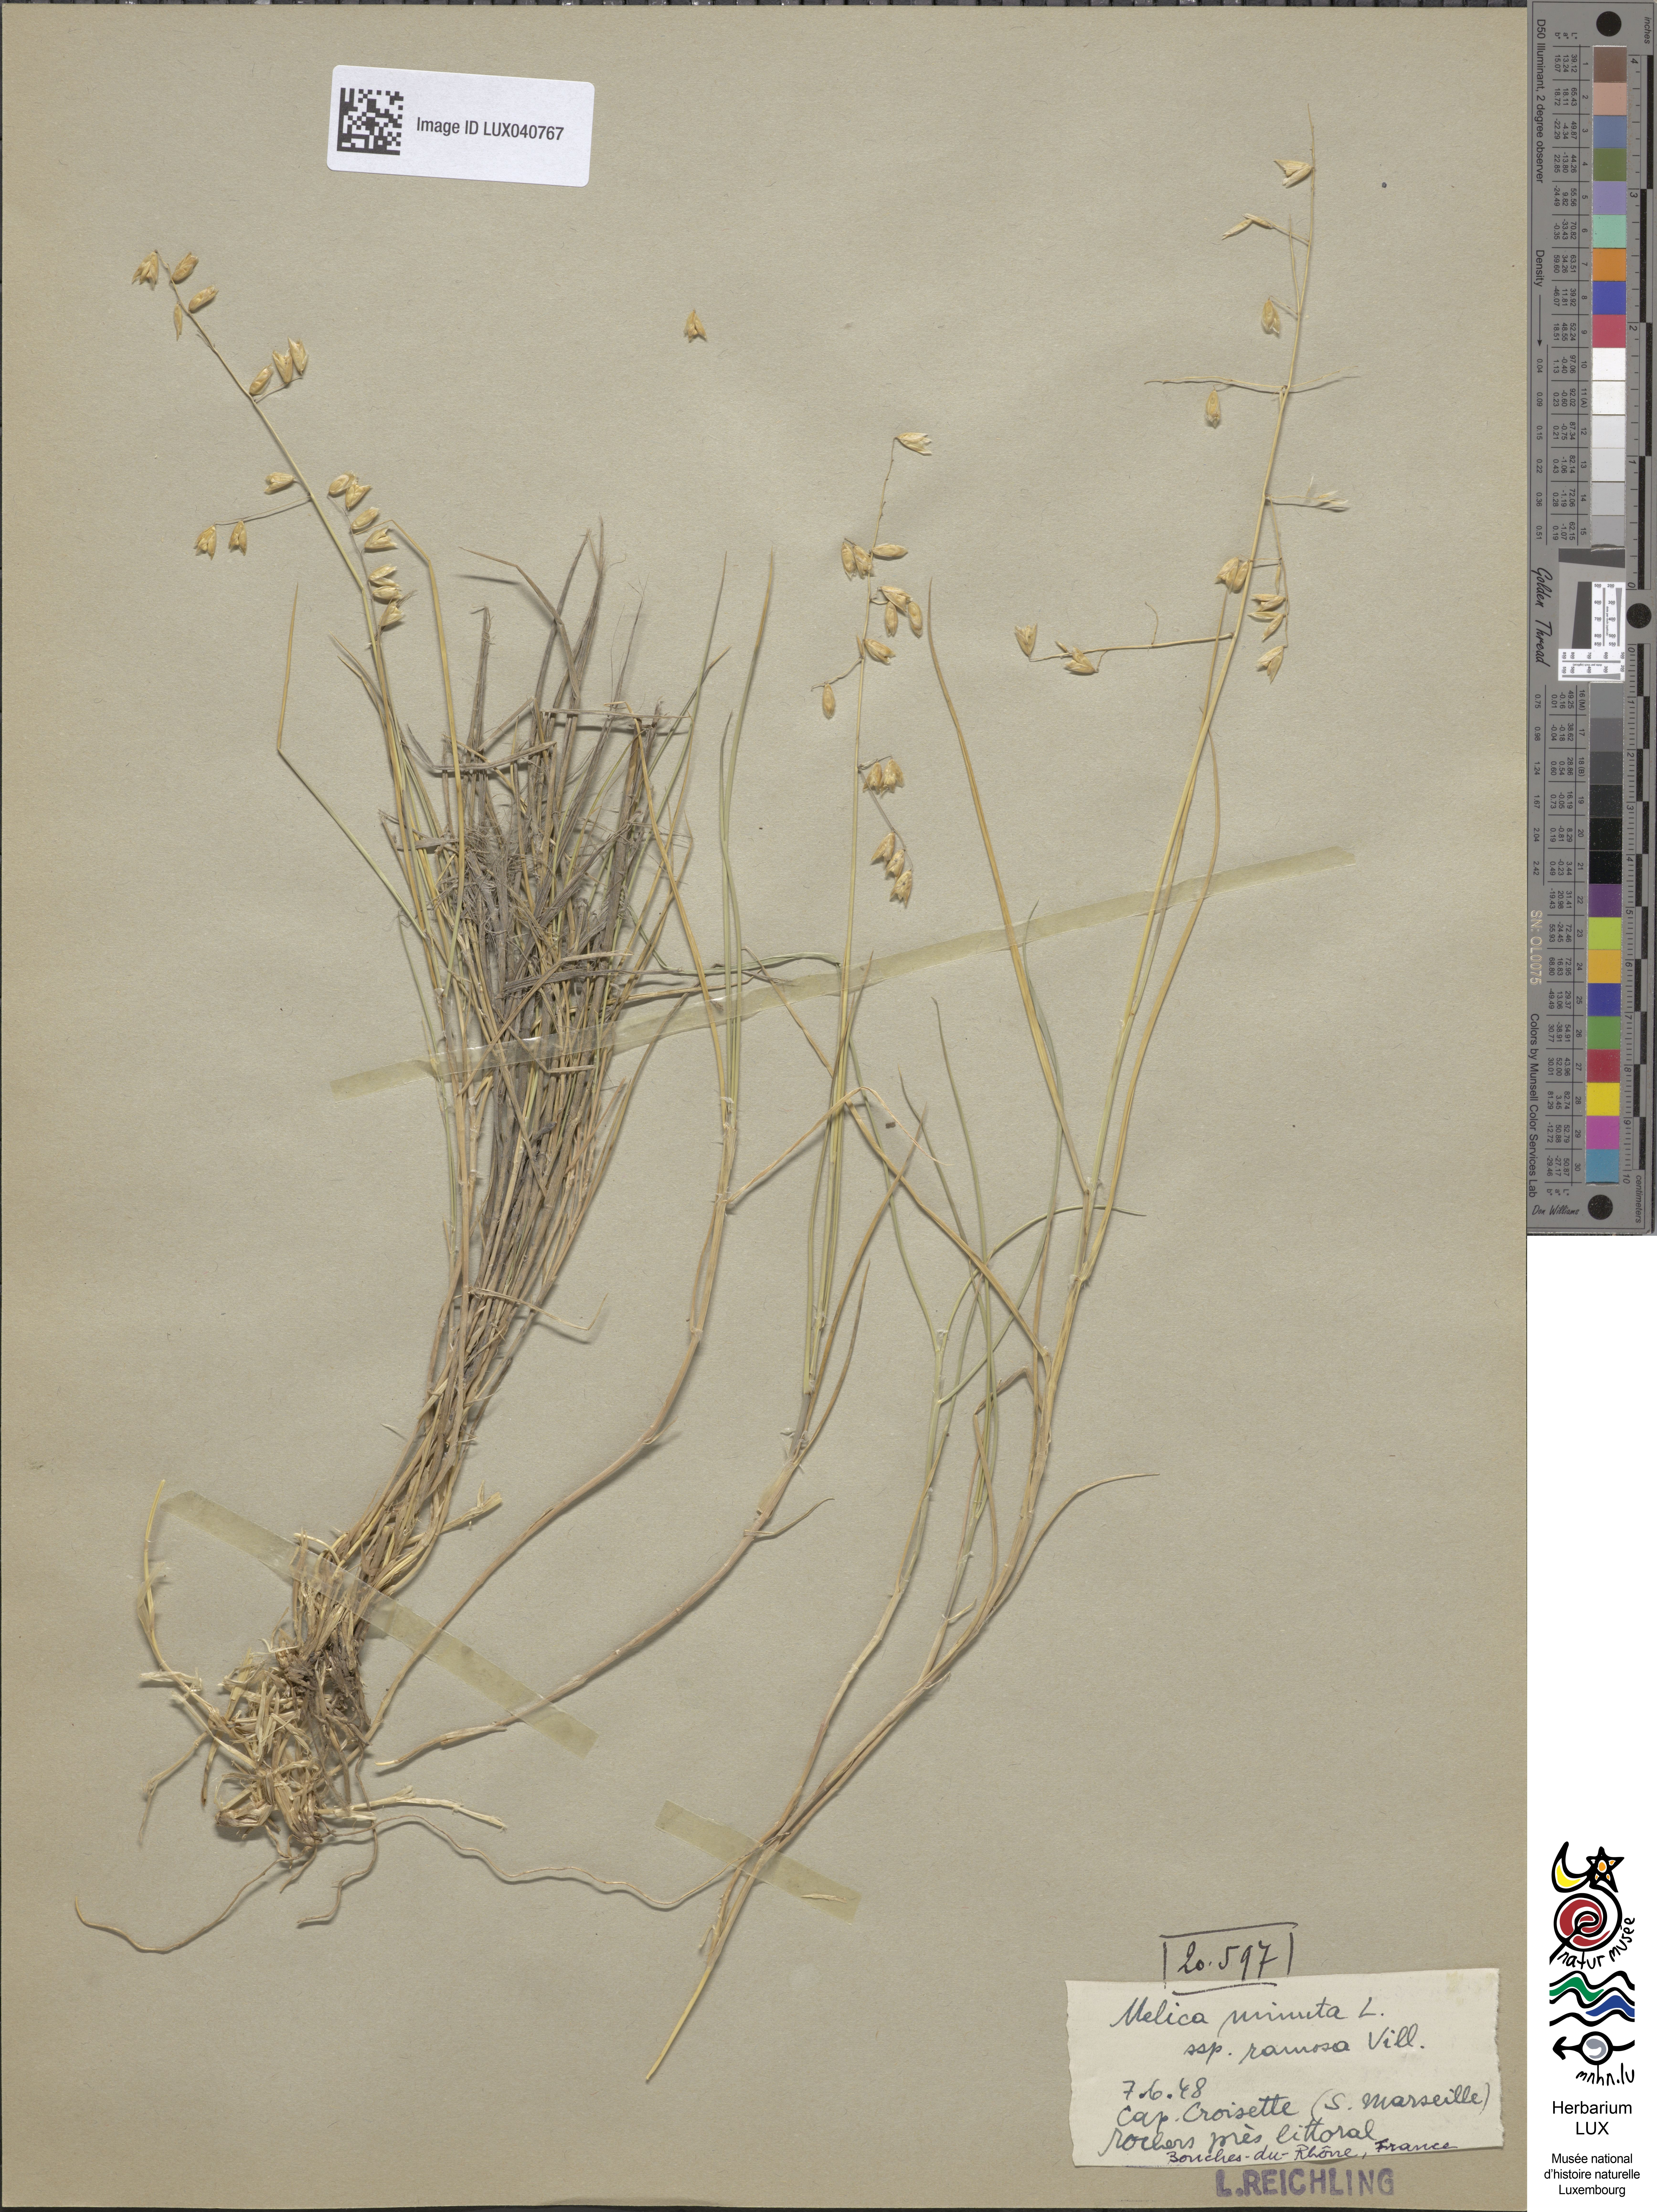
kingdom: Plantae
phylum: Tracheophyta
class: Liliopsida
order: Poales
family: Poaceae
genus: Melica
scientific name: Melica minuta
